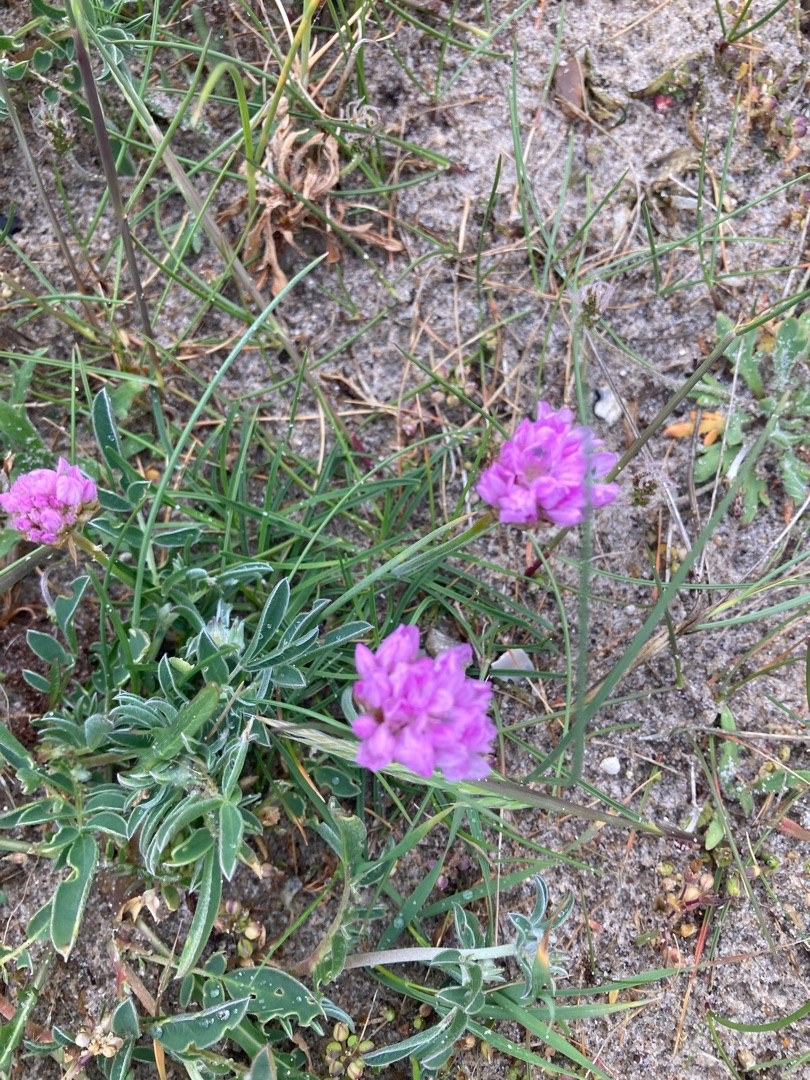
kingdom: Plantae
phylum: Tracheophyta
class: Magnoliopsida
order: Caryophyllales
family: Plumbaginaceae
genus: Armeria
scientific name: Armeria maritima
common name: Engelskgræs
